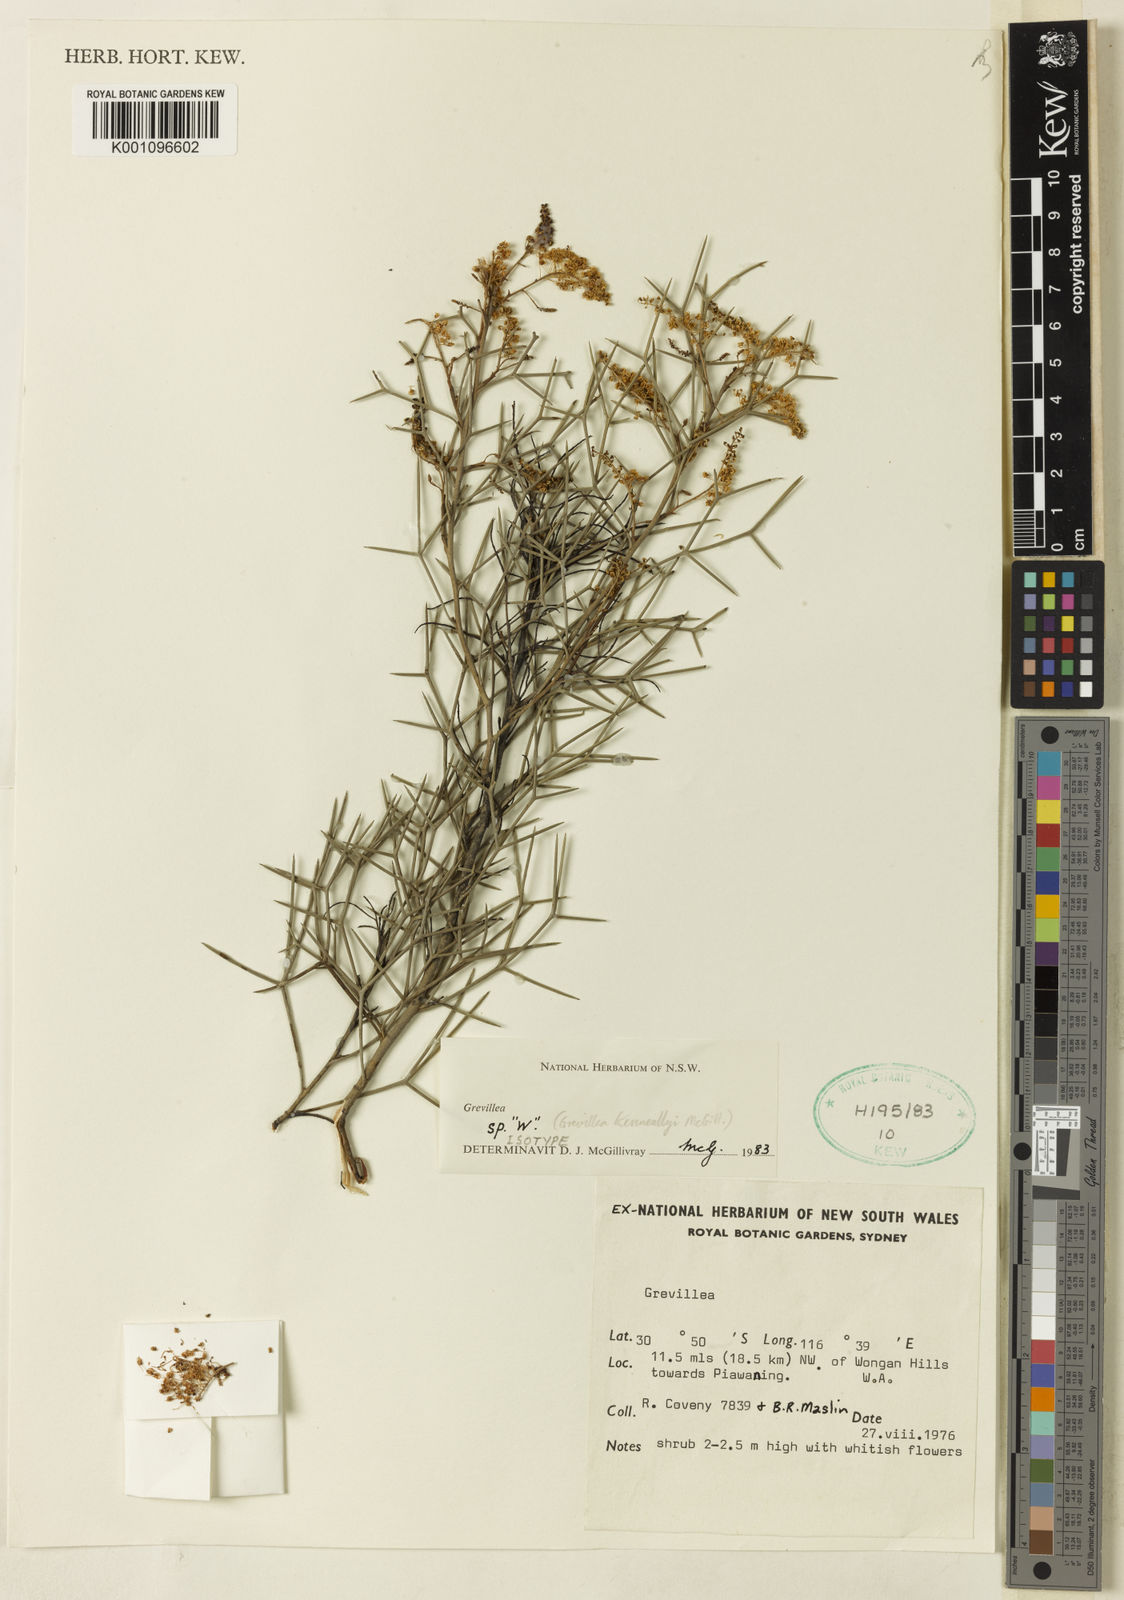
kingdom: Plantae
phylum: Tracheophyta
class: Magnoliopsida
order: Proteales
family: Proteaceae
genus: Grevillea
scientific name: Grevillea kenneallyi
